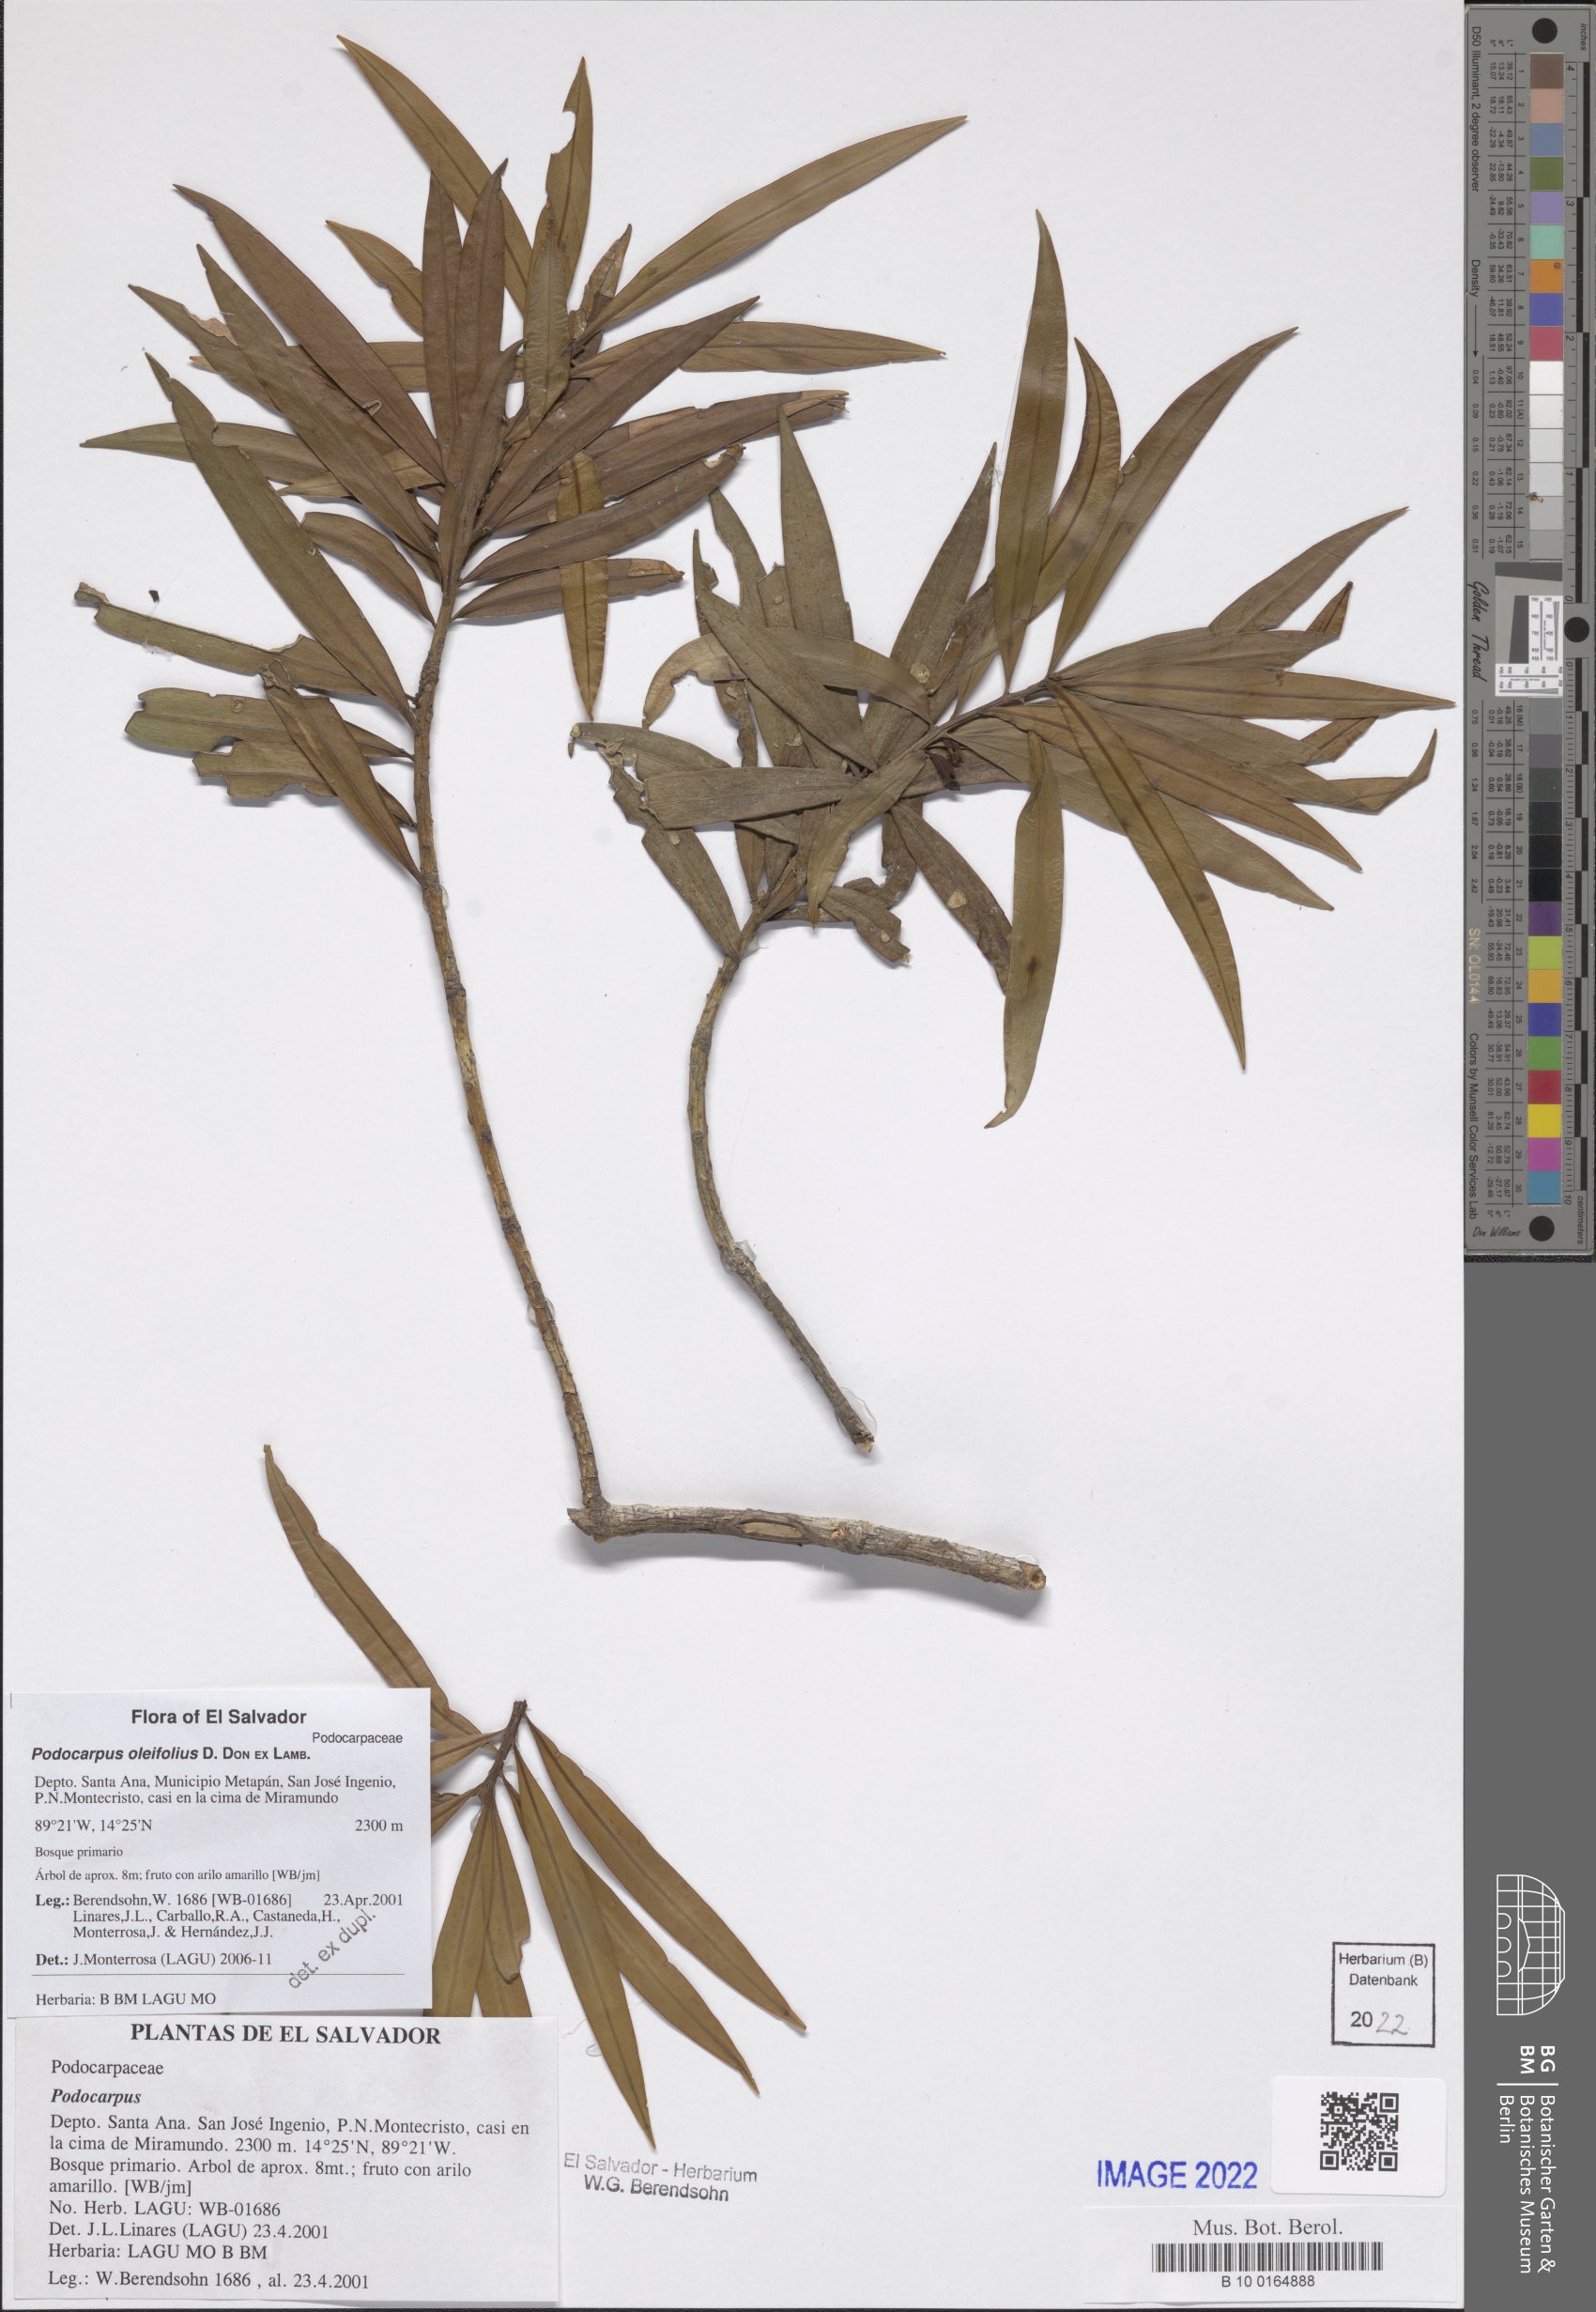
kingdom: Plantae
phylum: Tracheophyta
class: Pinopsida
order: Pinales
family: Podocarpaceae
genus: Podocarpus
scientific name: Podocarpus oleifolius
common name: Olive-leaf podoberry
